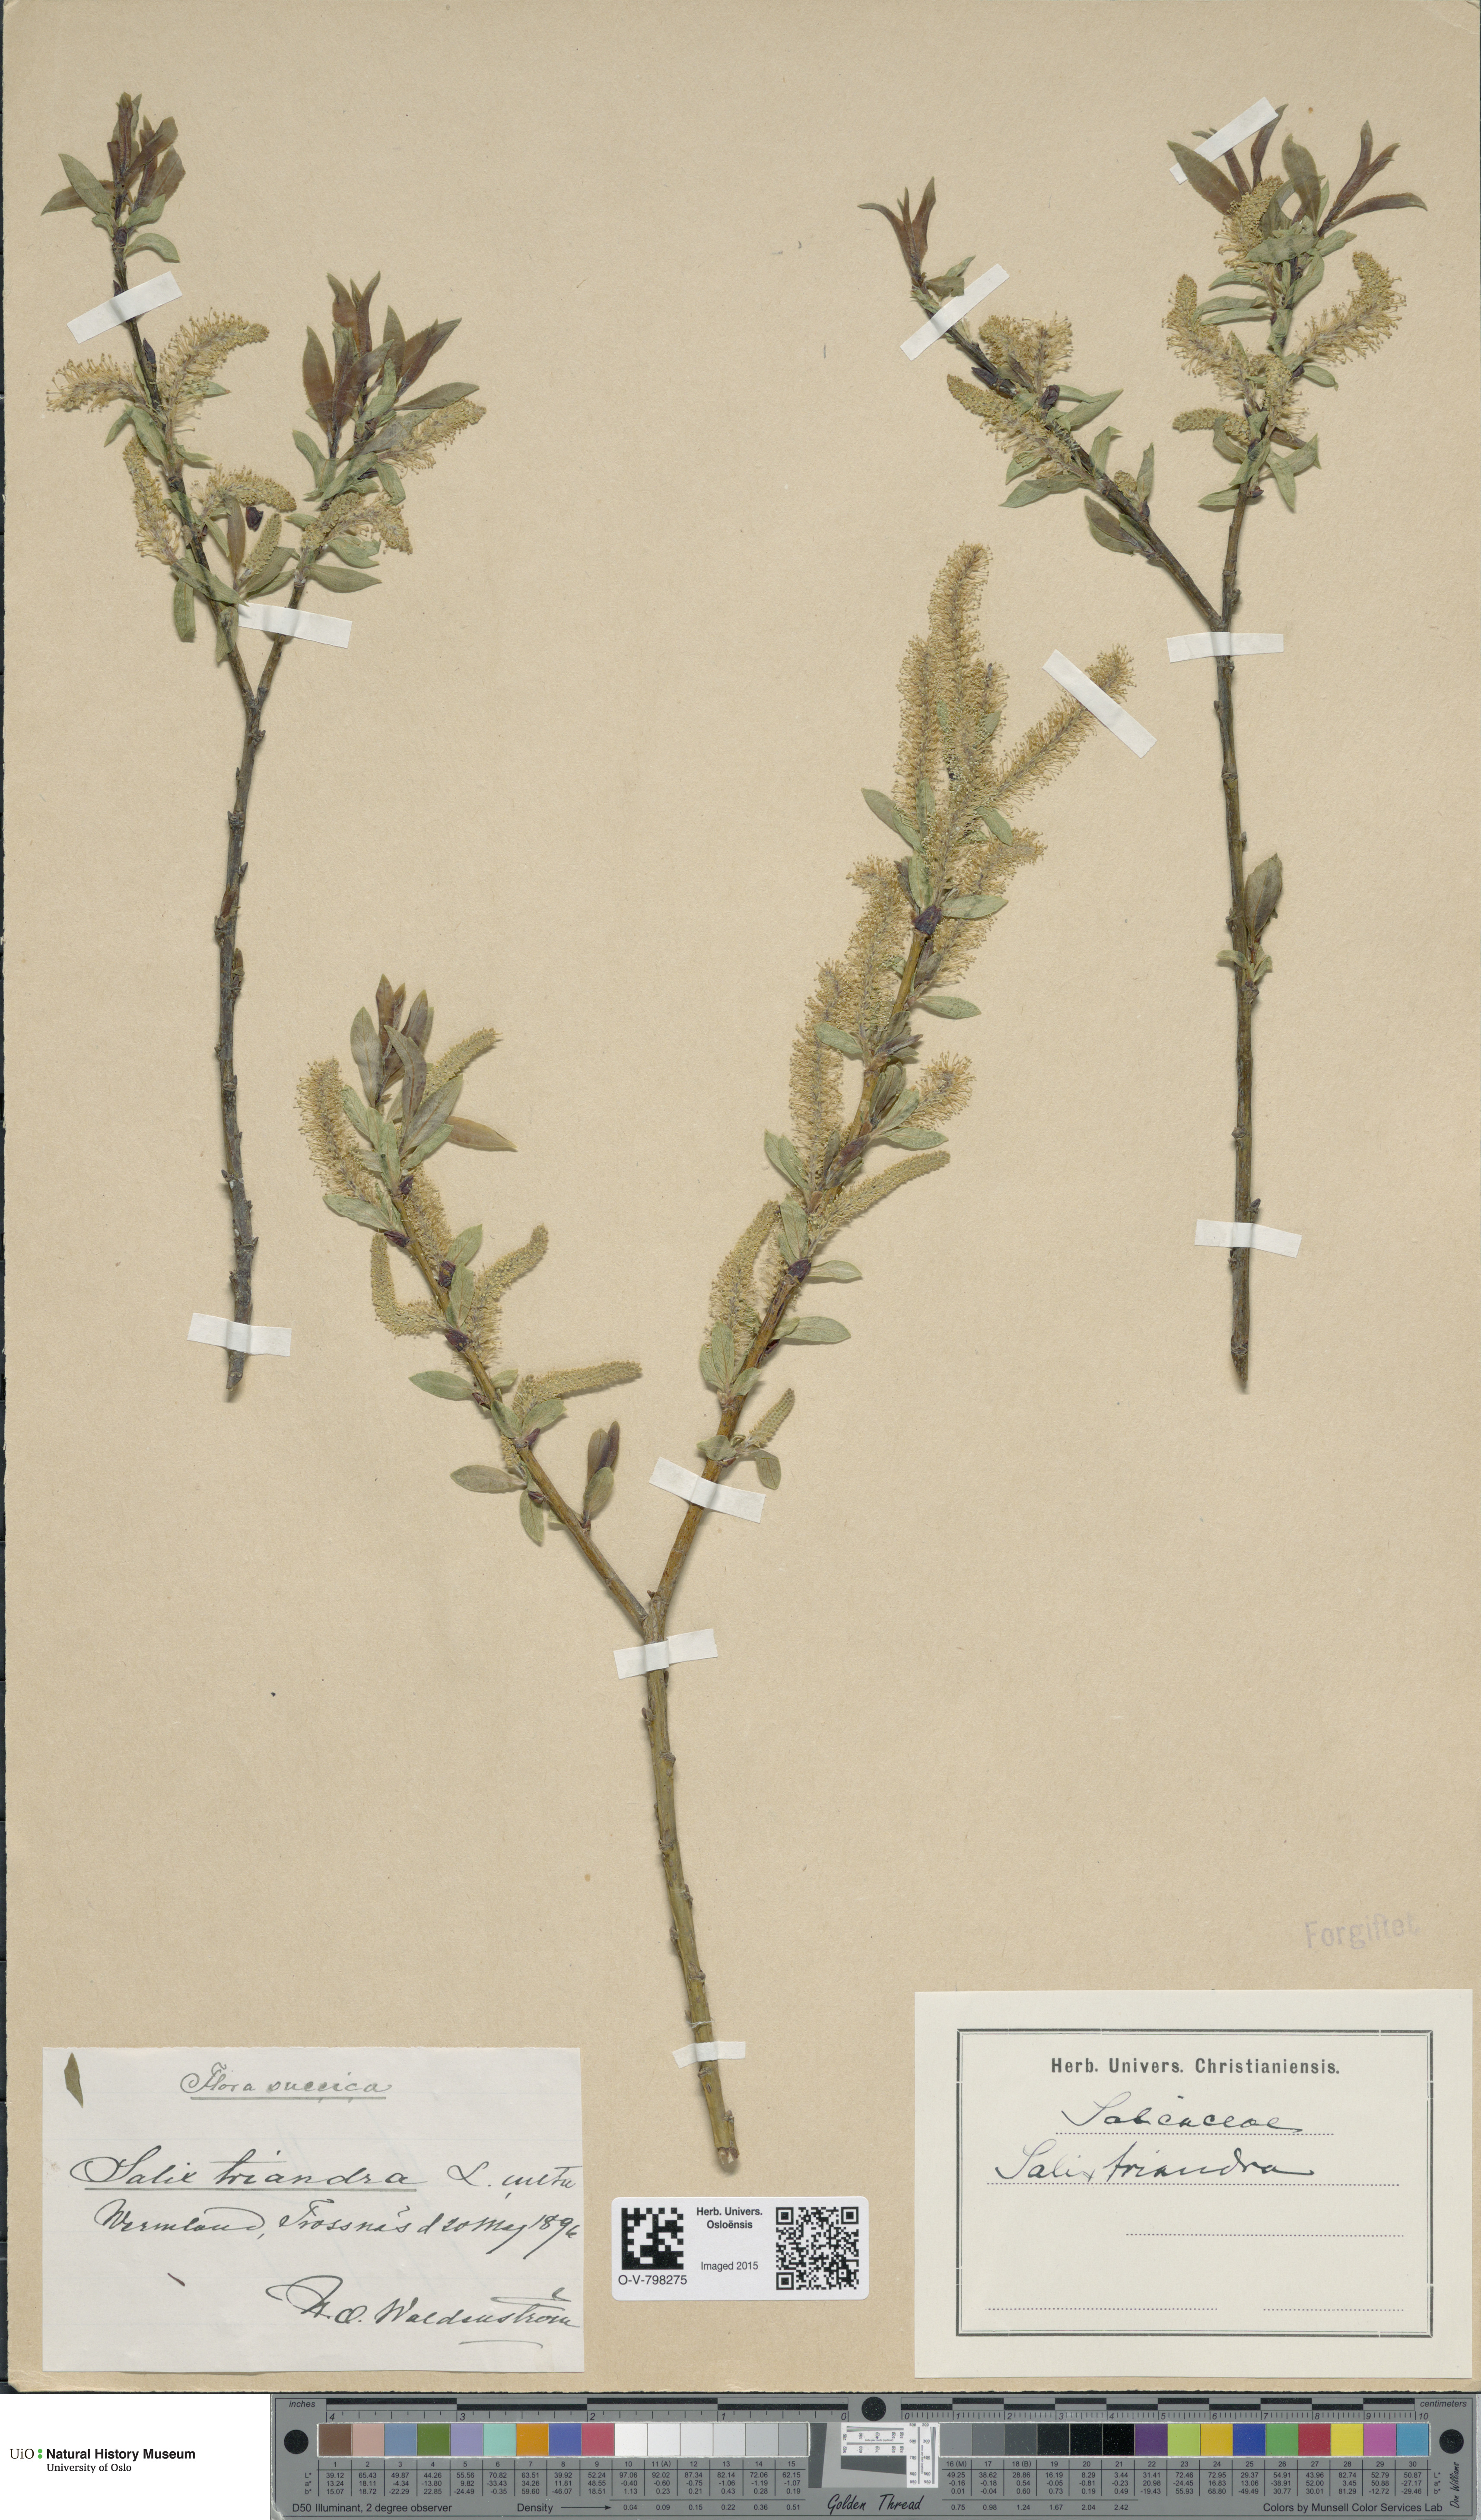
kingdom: Plantae
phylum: Tracheophyta
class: Magnoliopsida
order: Malpighiales
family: Salicaceae
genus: Salix
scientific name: Salix triandra
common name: Almond willow
